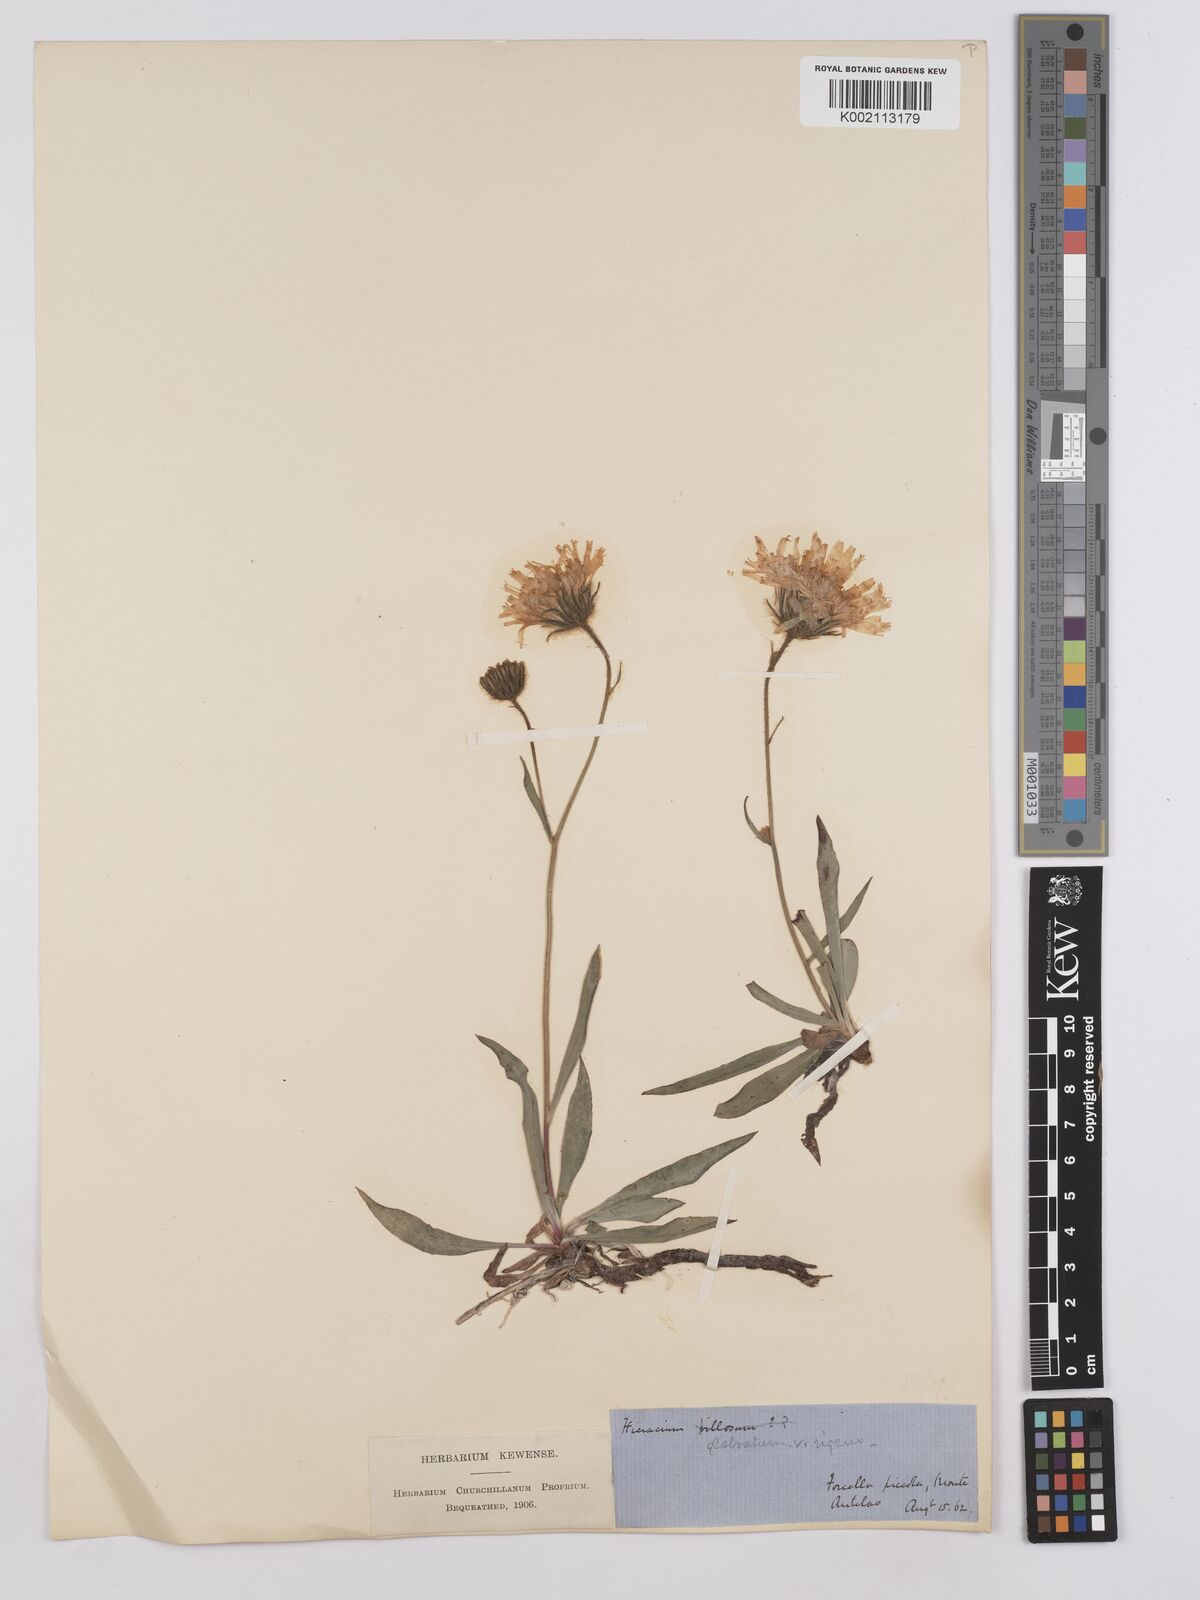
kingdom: Plantae
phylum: Tracheophyta
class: Magnoliopsida
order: Asterales
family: Asteraceae
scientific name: Asteraceae
